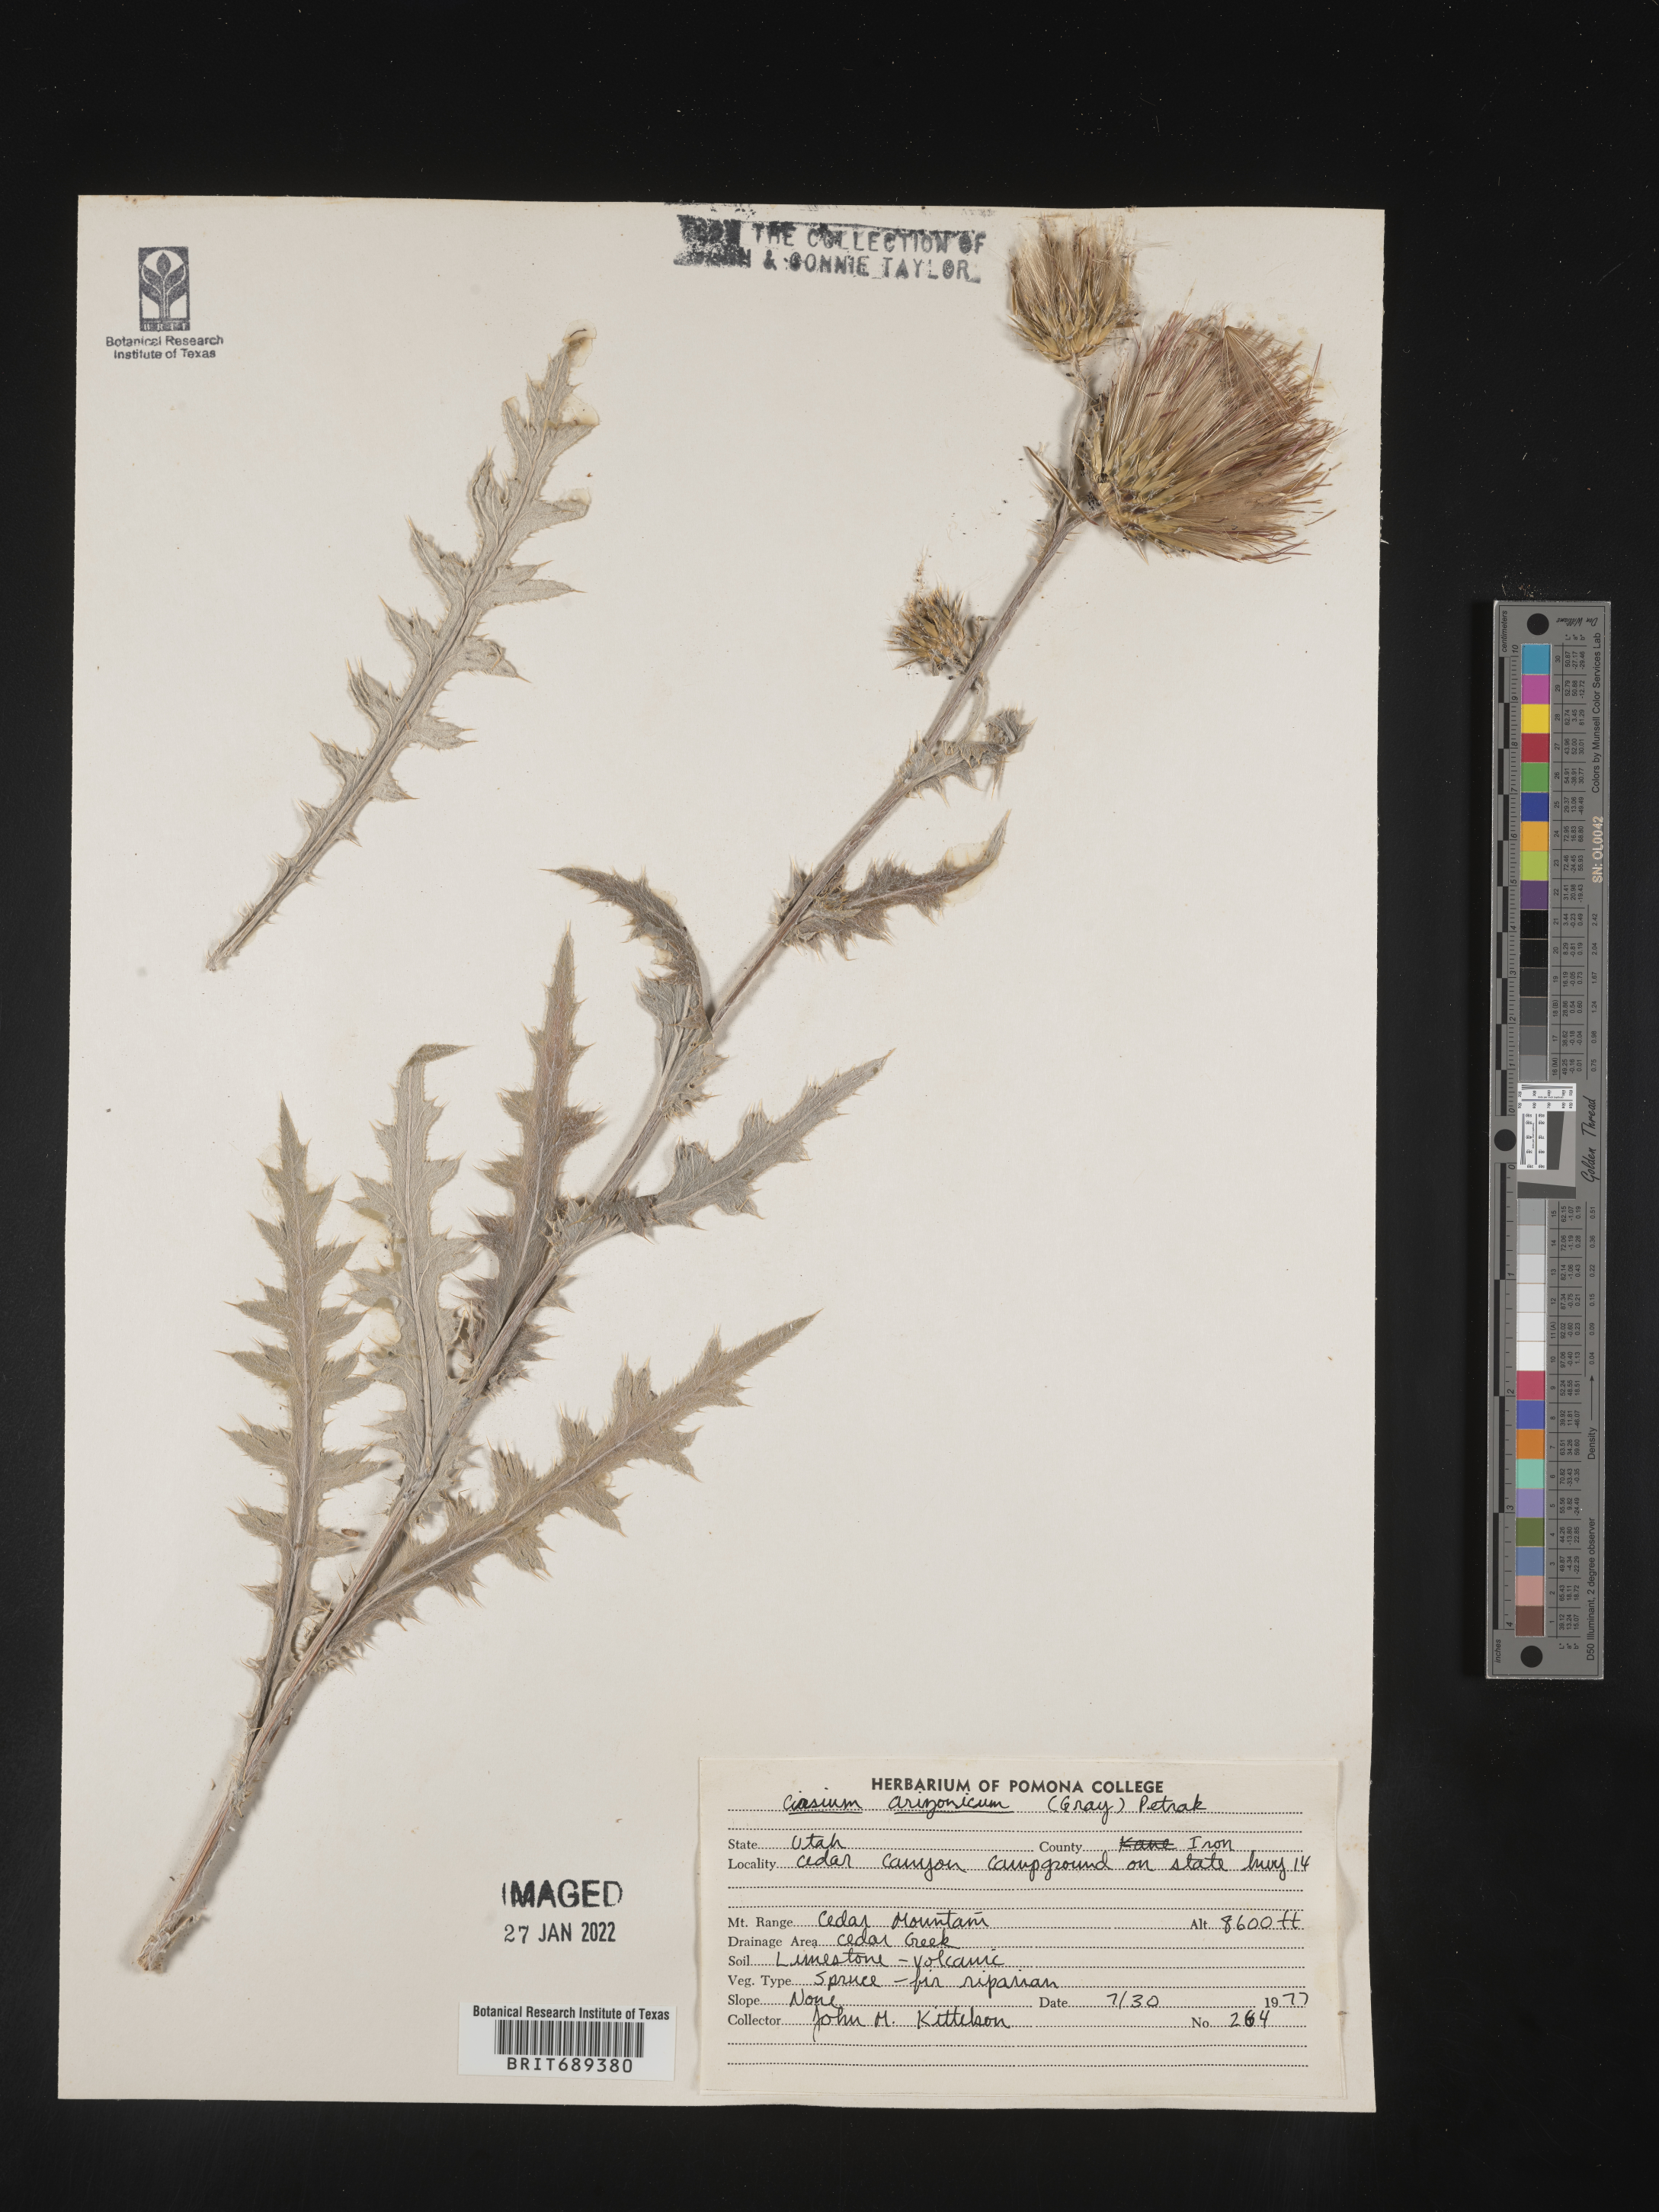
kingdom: Plantae
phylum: Tracheophyta
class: Magnoliopsida
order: Asterales
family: Asteraceae
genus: Cirsium
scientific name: Cirsium arizonicum
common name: Arizona thistle
